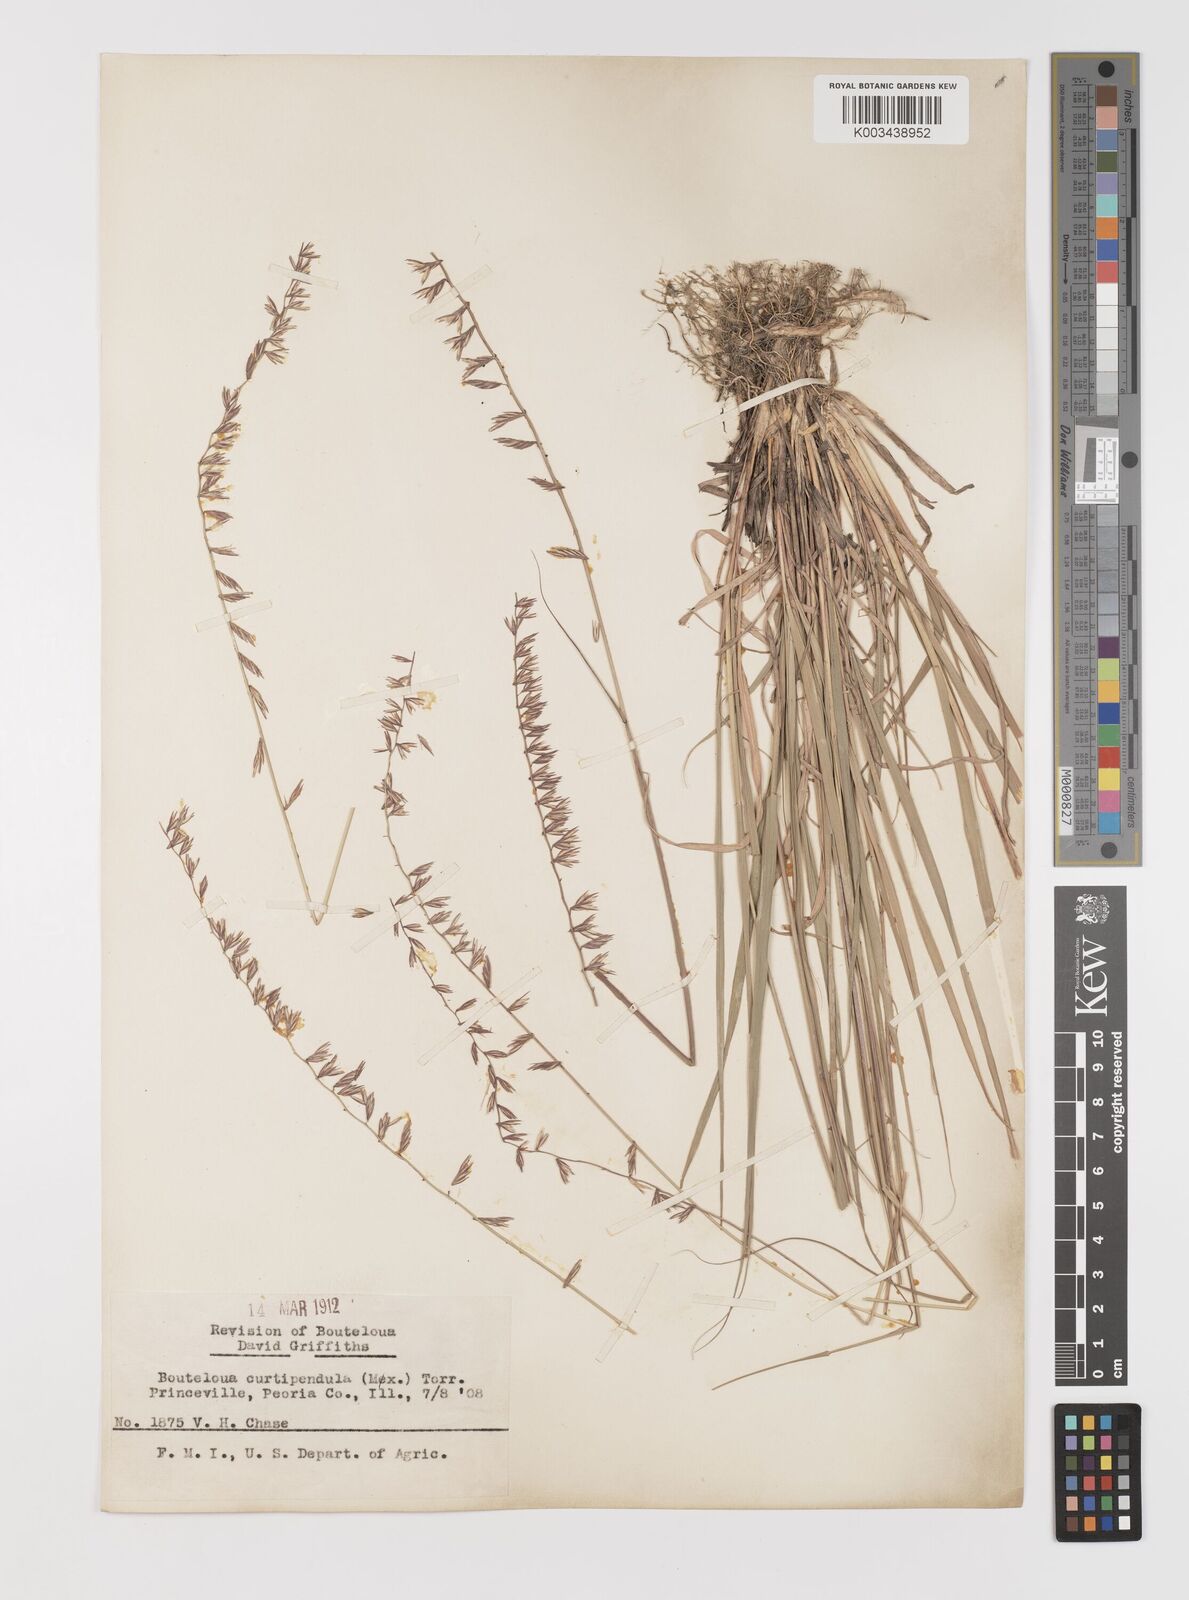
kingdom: Plantae
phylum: Tracheophyta
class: Liliopsida
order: Poales
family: Poaceae
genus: Bouteloua
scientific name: Bouteloua curtipendula
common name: Side-oats grama
